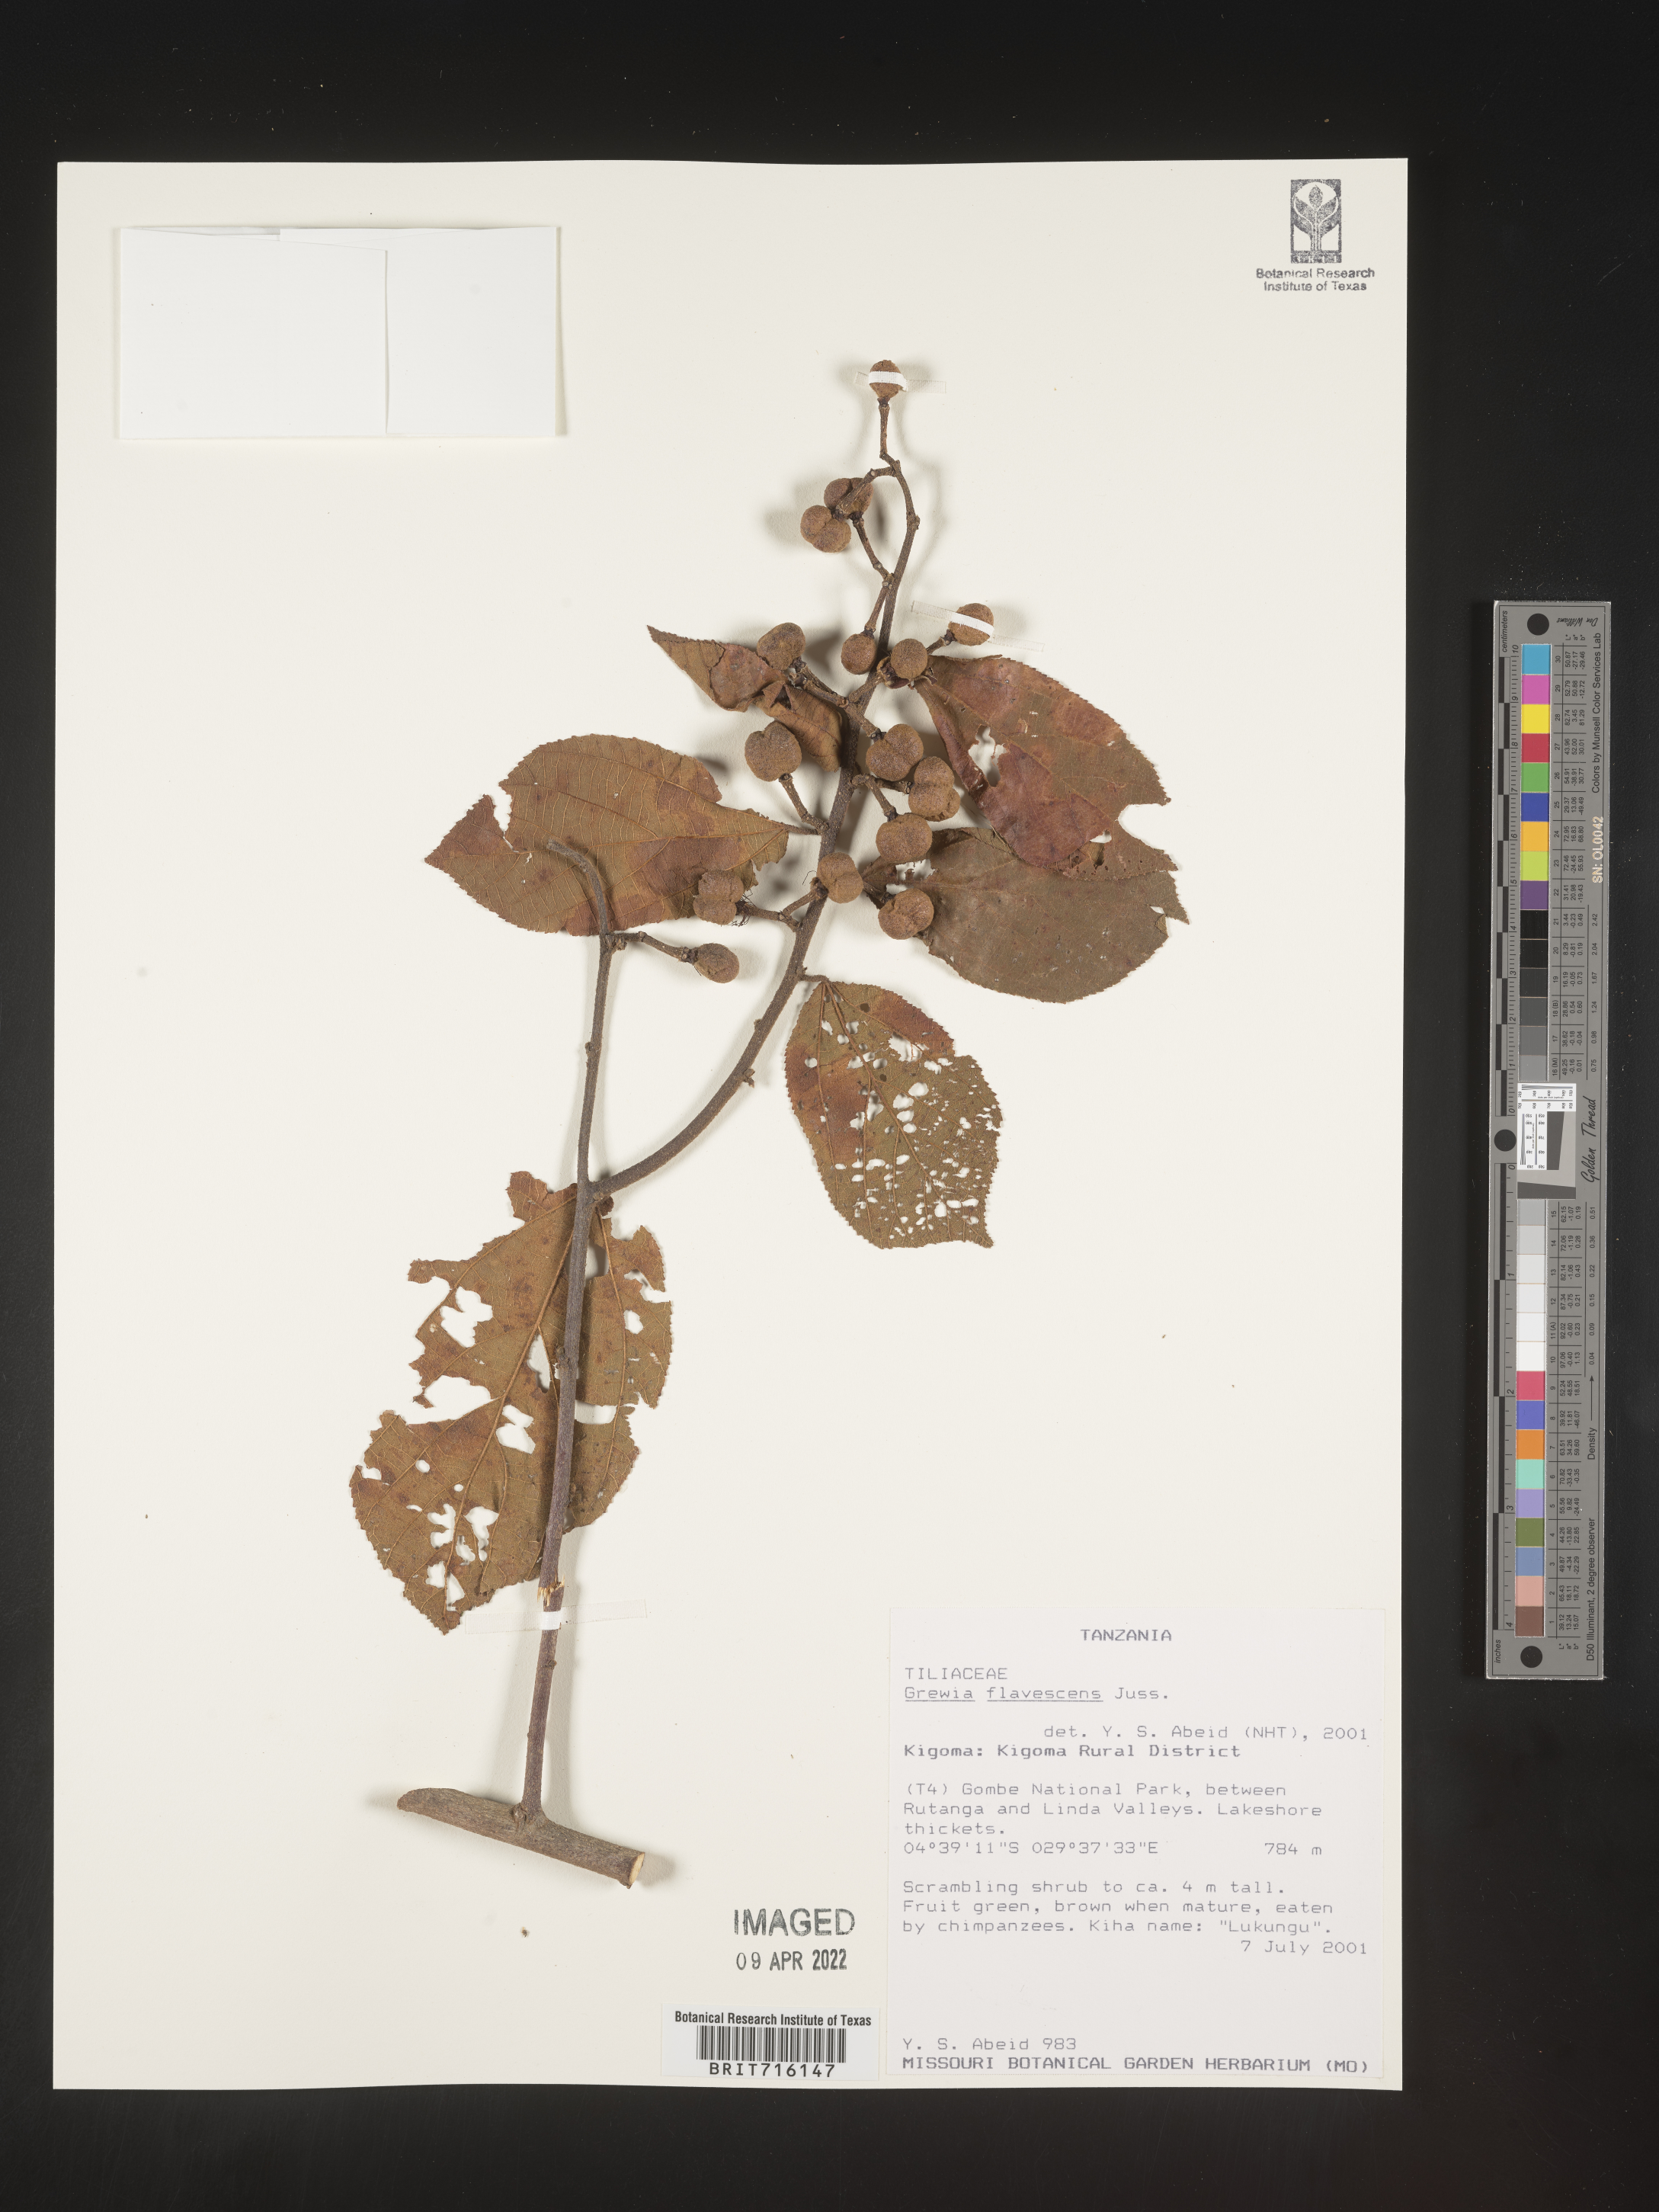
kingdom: Plantae
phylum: Tracheophyta
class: Magnoliopsida
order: Malvales
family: Malvaceae
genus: Grewia
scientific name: Grewia
